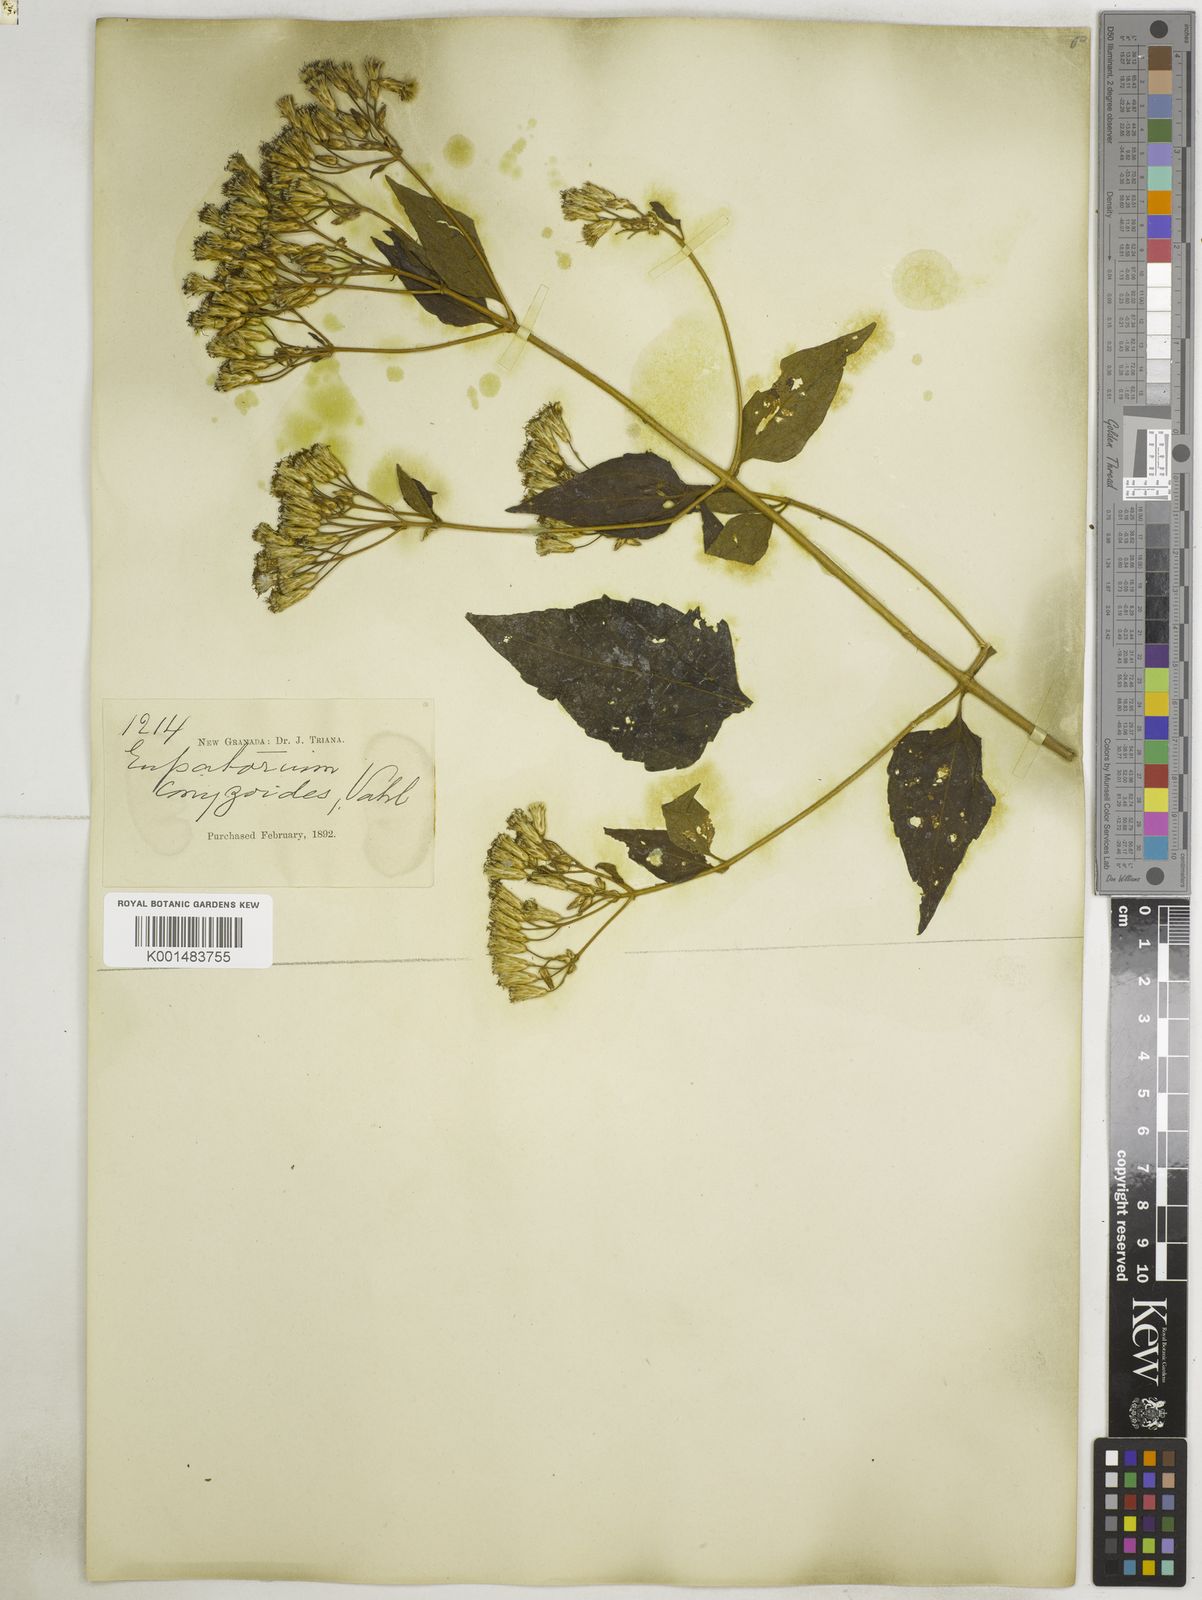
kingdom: Plantae
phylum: Tracheophyta
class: Magnoliopsida
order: Asterales
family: Asteraceae
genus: Chromolaena
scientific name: Chromolaena odorata
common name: Siamweed
